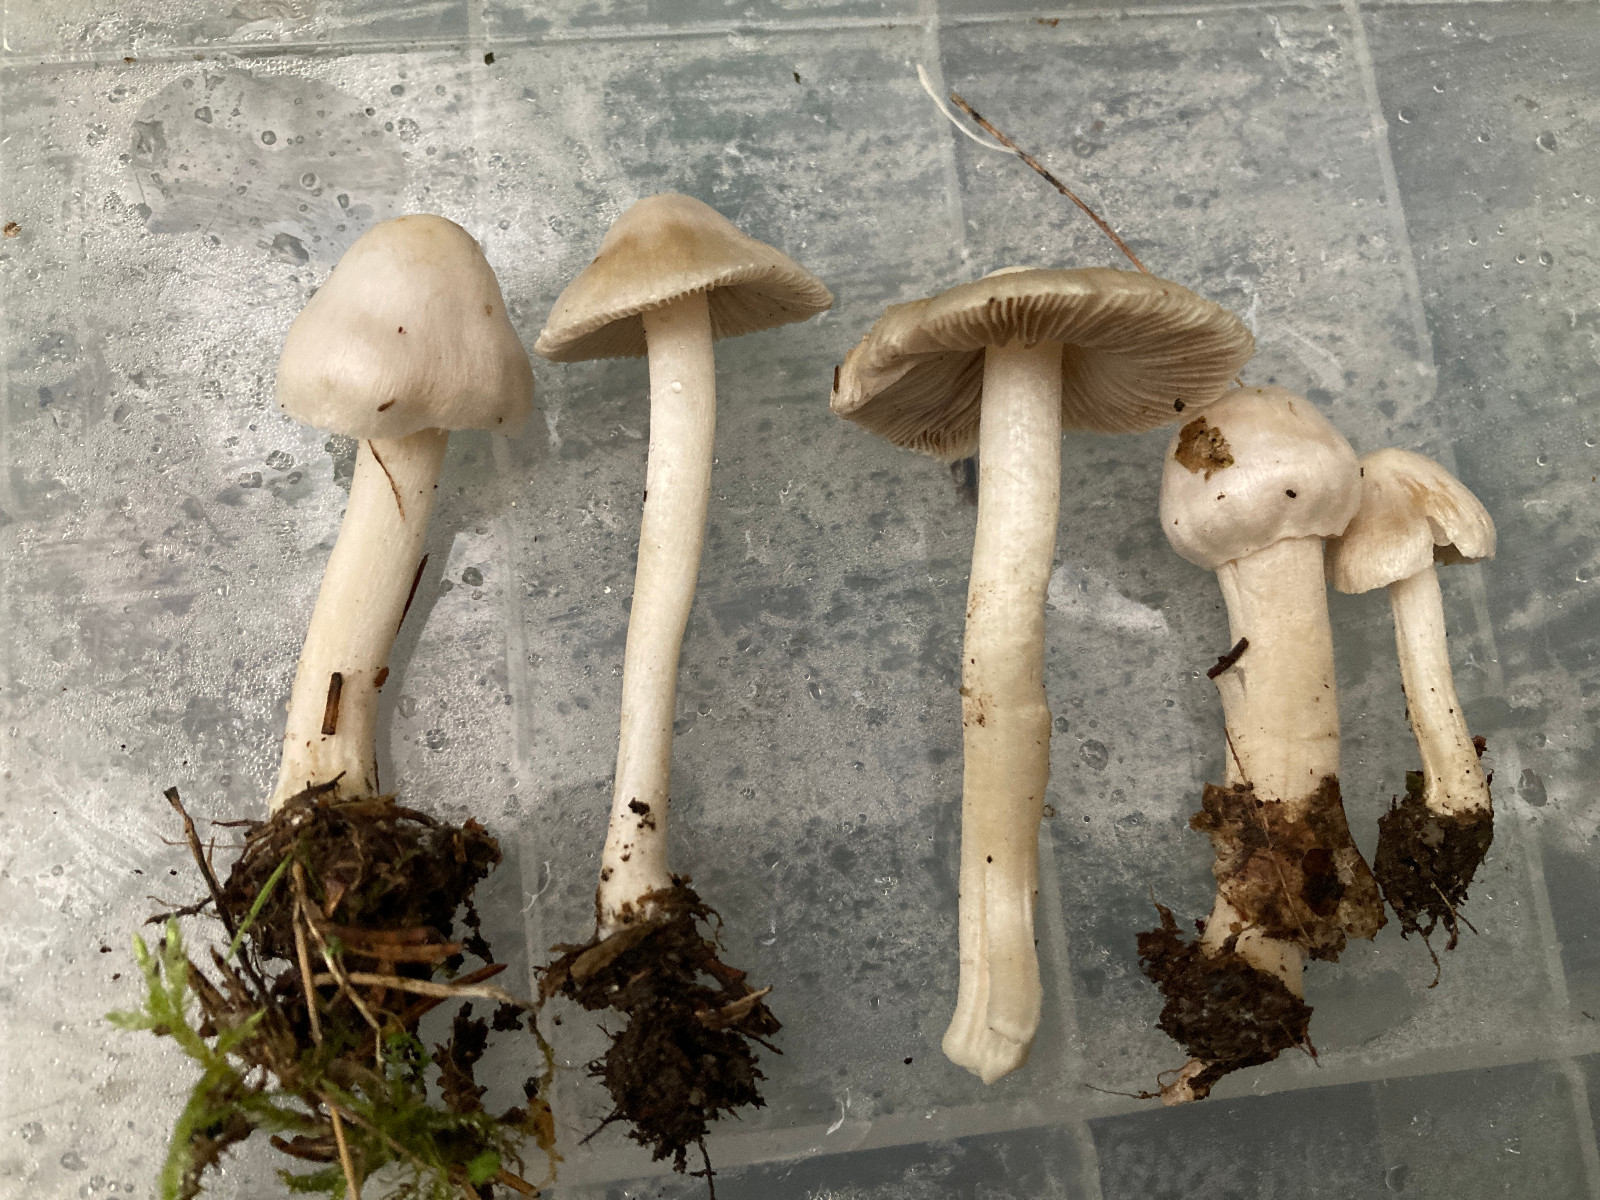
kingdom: Fungi
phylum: Basidiomycota
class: Agaricomycetes
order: Agaricales
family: Inocybaceae
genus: Inocybe
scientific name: Inocybe
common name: trævlhat
